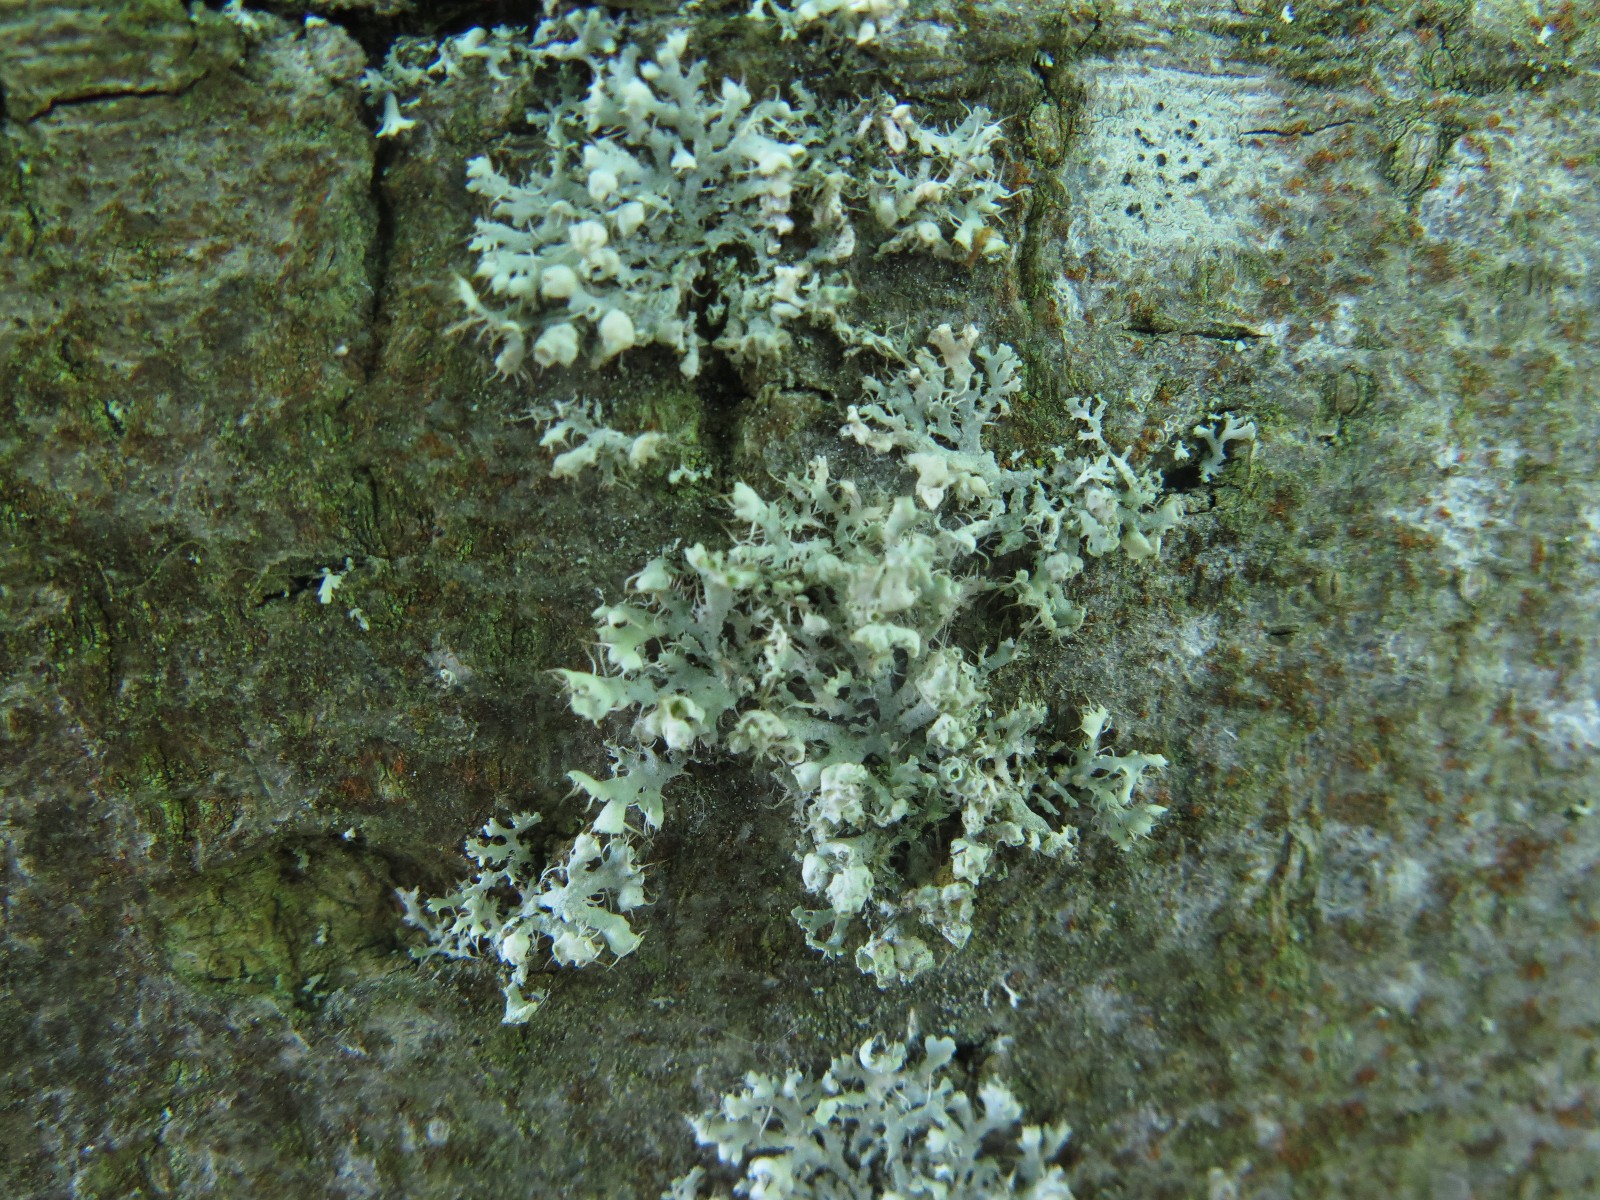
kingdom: Fungi
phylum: Ascomycota
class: Lecanoromycetes
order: Caliciales
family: Physciaceae
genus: Physcia
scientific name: Physcia adscendens
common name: hætte-rosetlav
